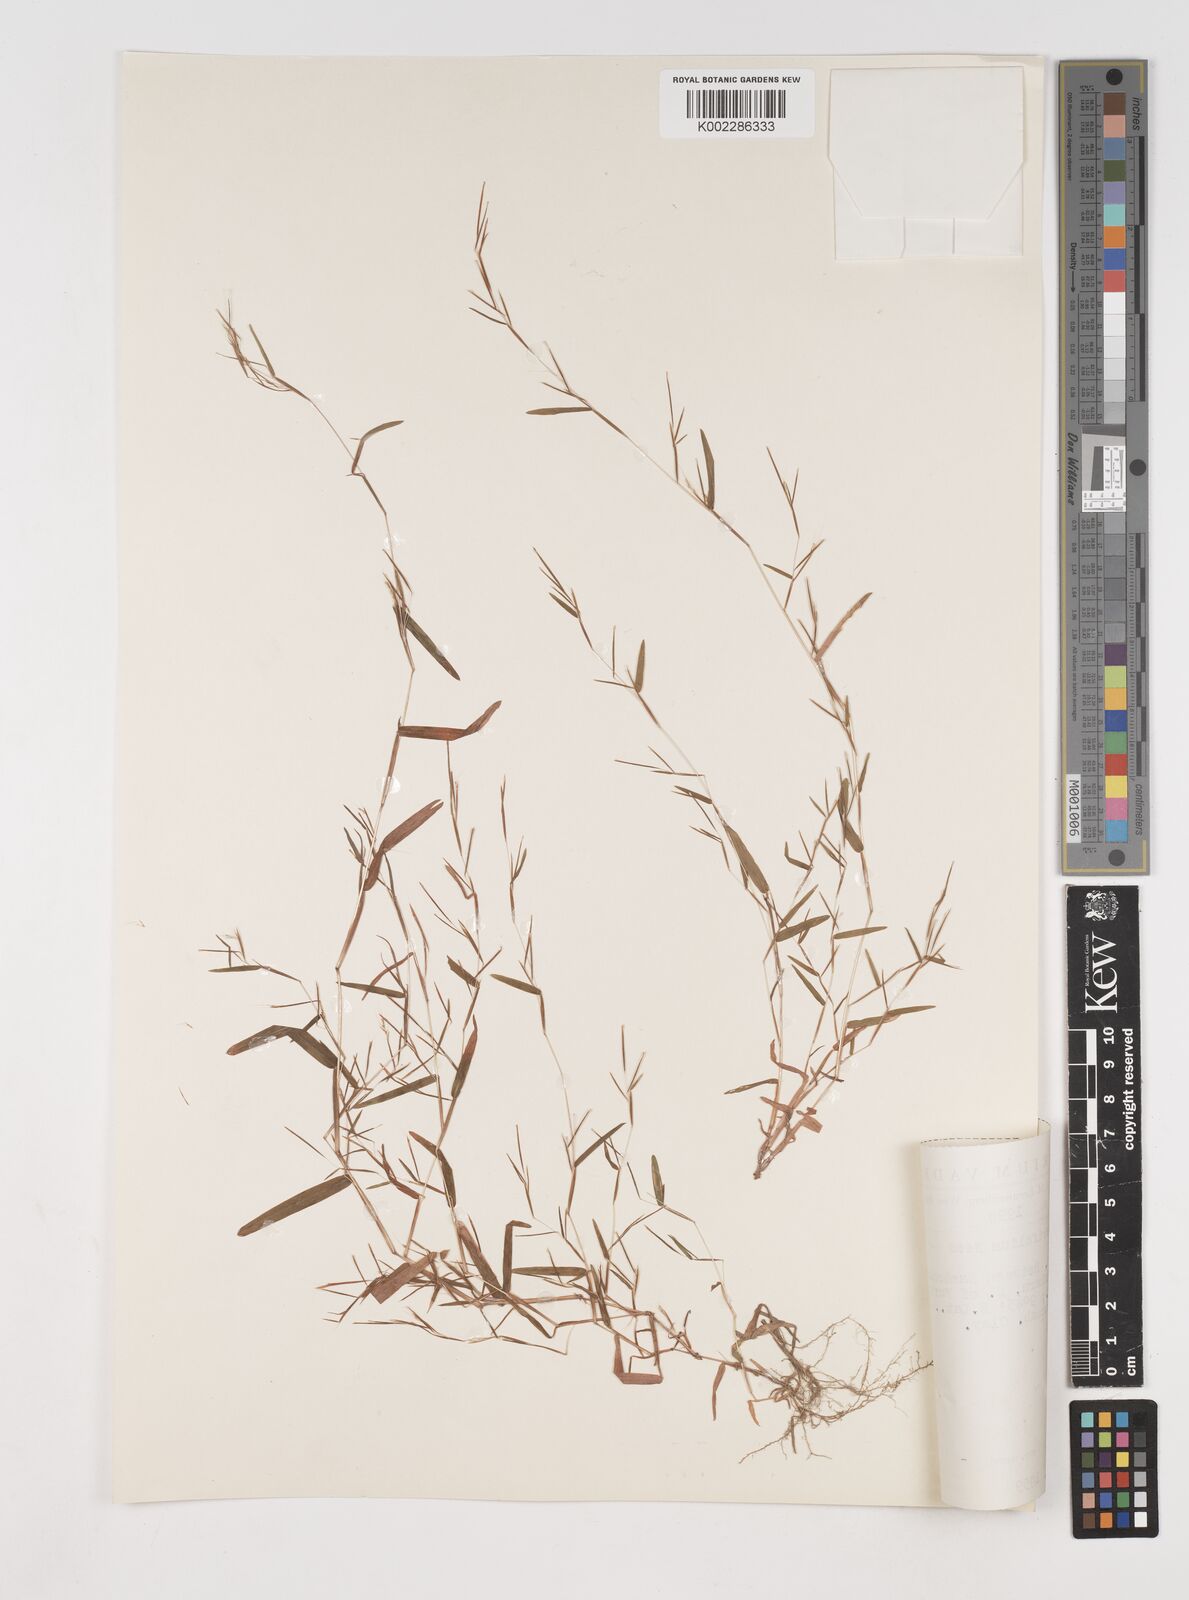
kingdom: Plantae
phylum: Tracheophyta
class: Liliopsida
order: Poales
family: Poaceae
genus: Schizachyrium
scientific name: Schizachyrium brevifolium
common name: Serillo dulce
